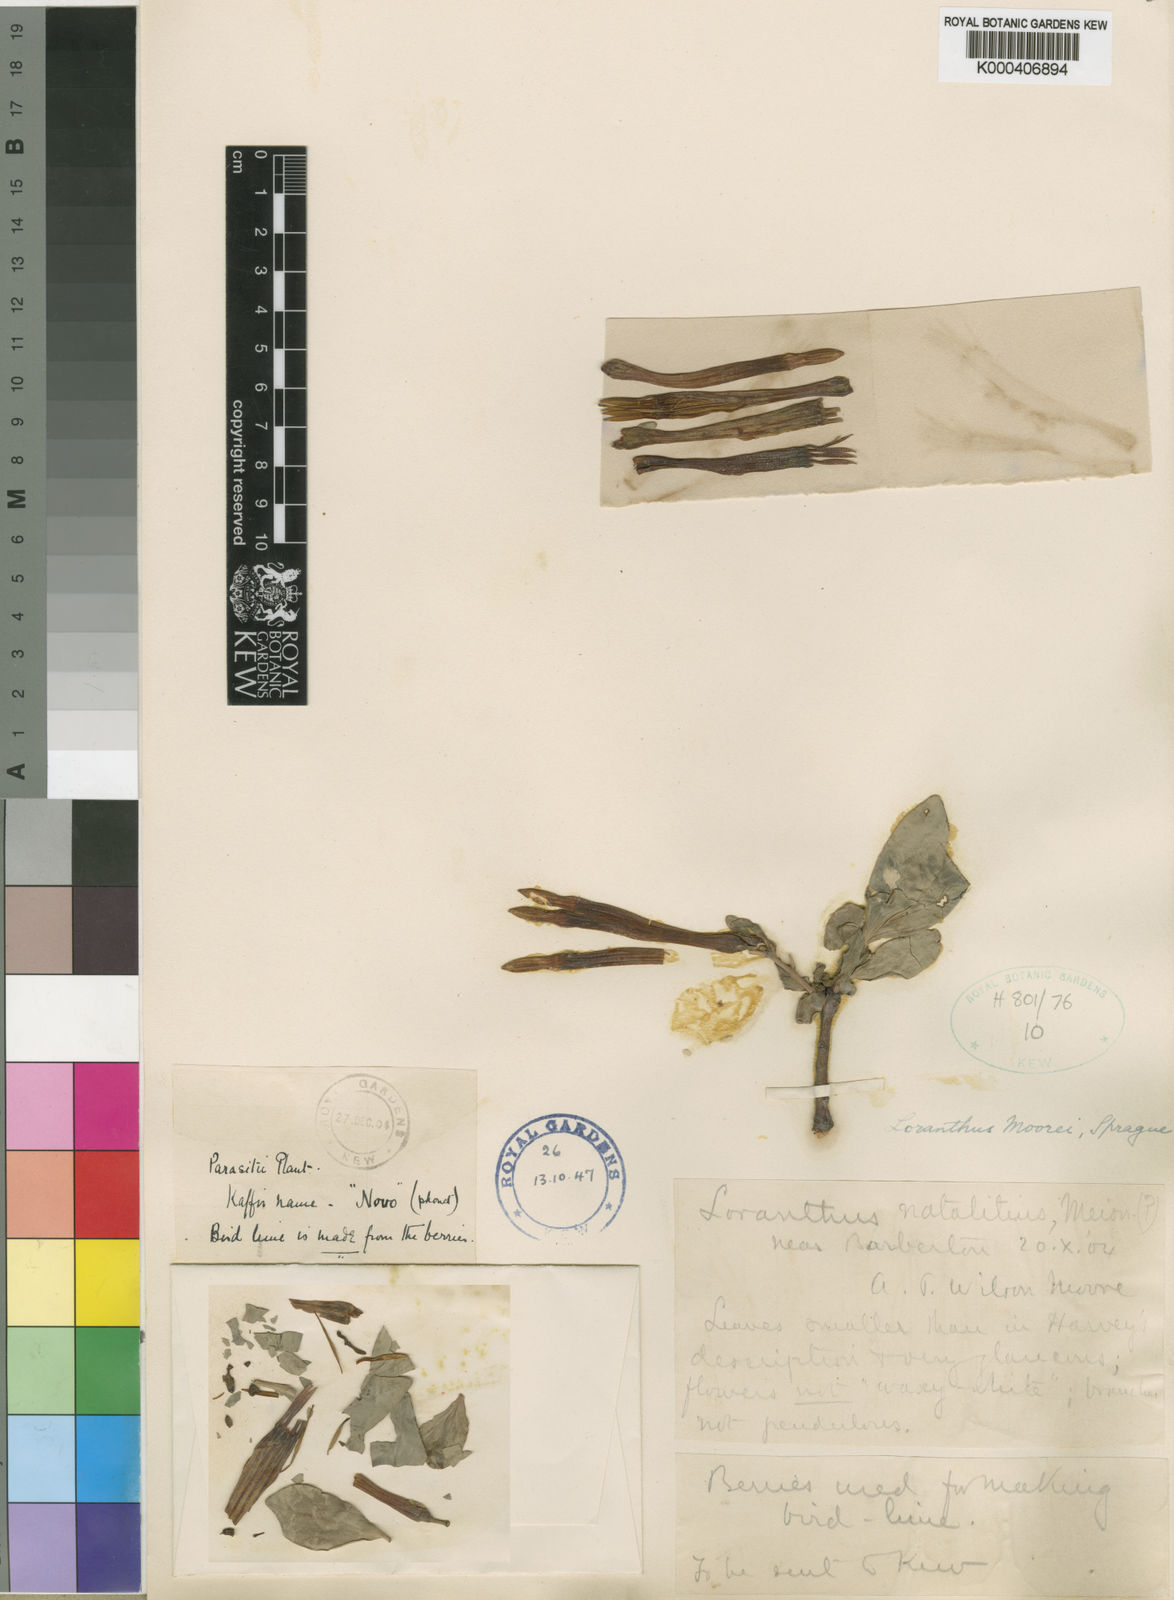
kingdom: Plantae
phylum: Tracheophyta
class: Magnoliopsida
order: Santalales
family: Loranthaceae
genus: Agelanthus
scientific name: Agelanthus natalitius
